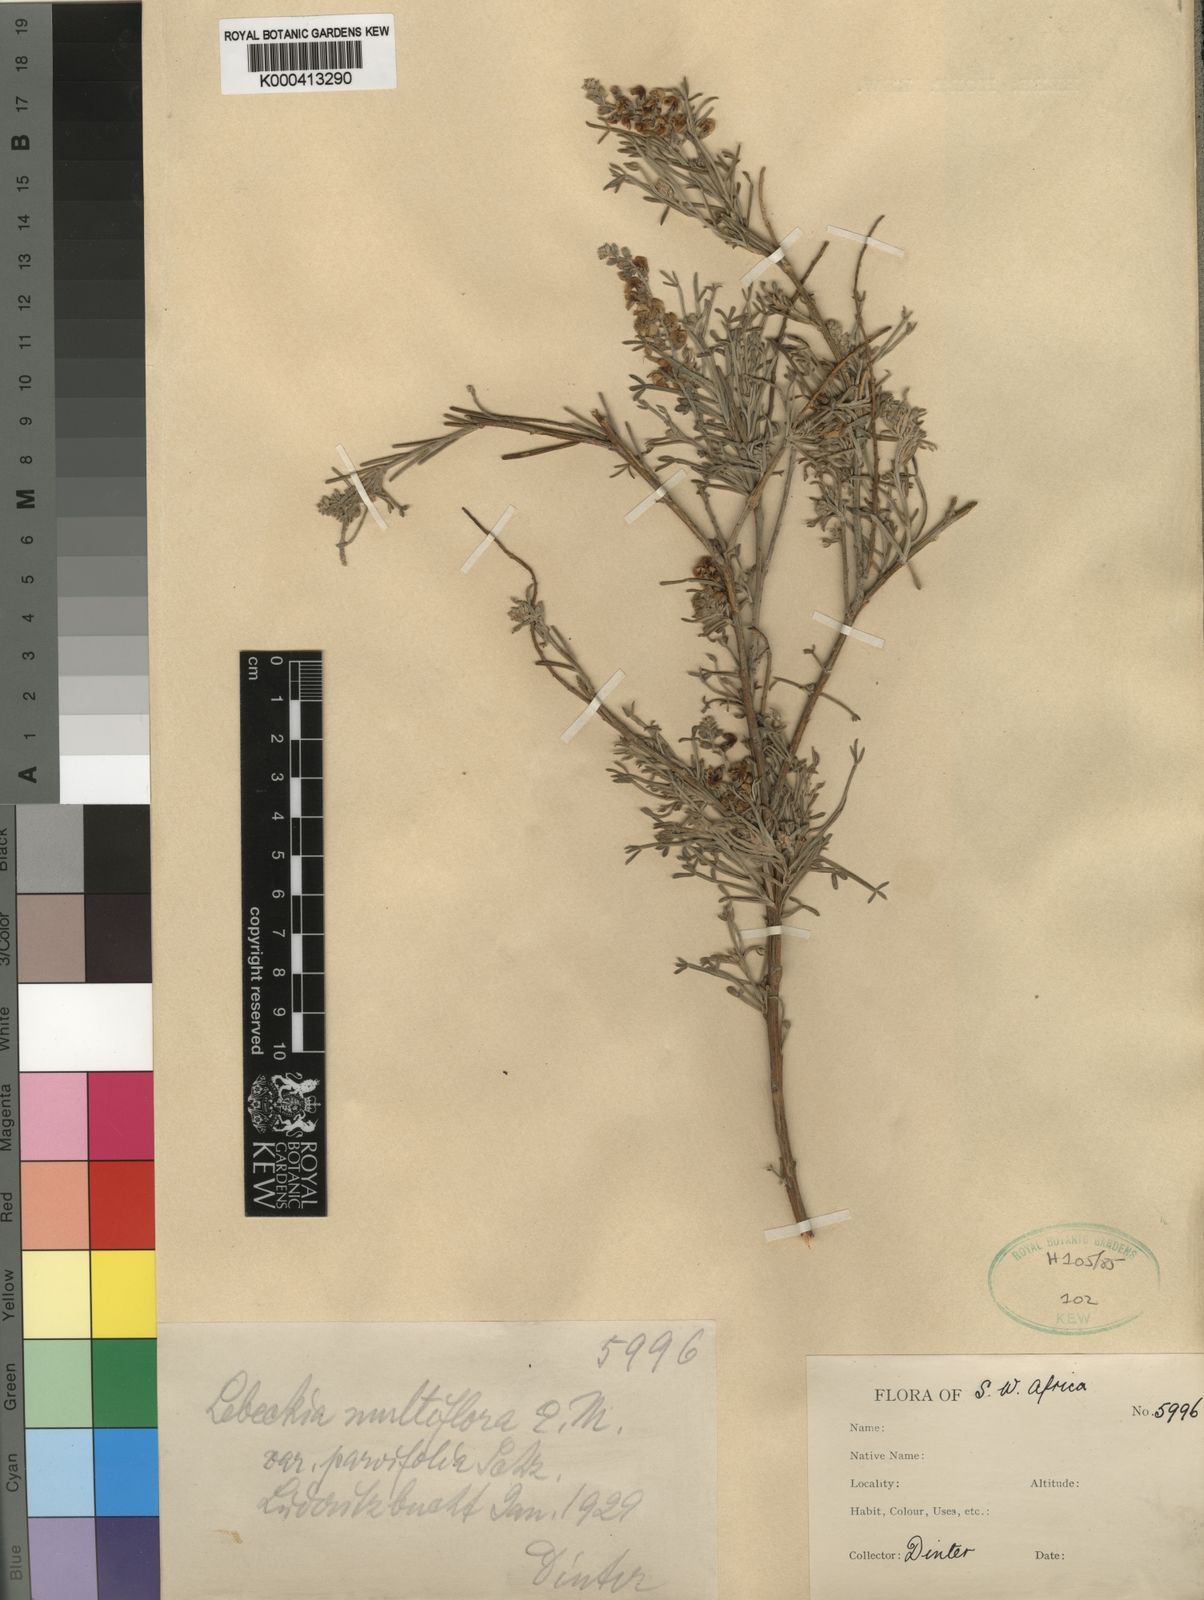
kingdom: Plantae
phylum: Tracheophyta
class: Magnoliopsida
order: Fabales
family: Fabaceae
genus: Calobota
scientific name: Calobota angustifolia
